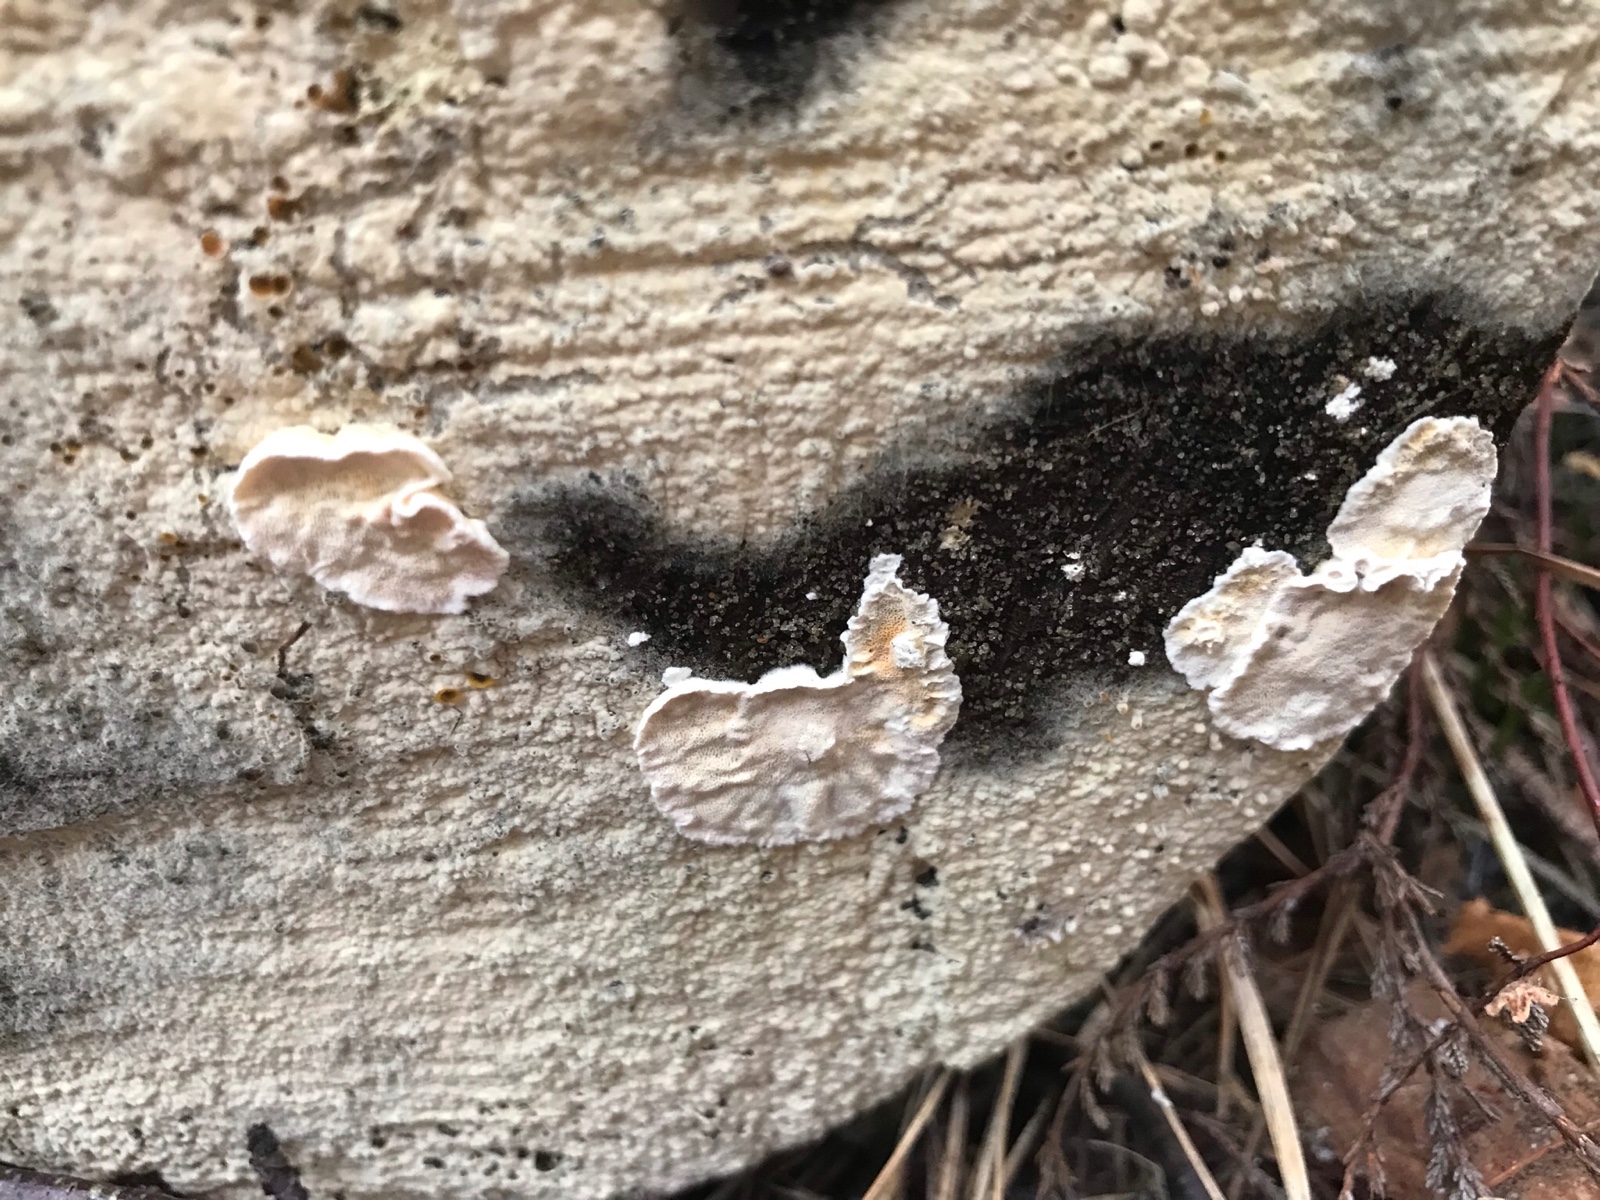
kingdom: Fungi
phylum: Basidiomycota
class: Agaricomycetes
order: Polyporales
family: Incrustoporiaceae
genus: Skeletocutis
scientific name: Skeletocutis amorpha
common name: orange krystalporesvamp
